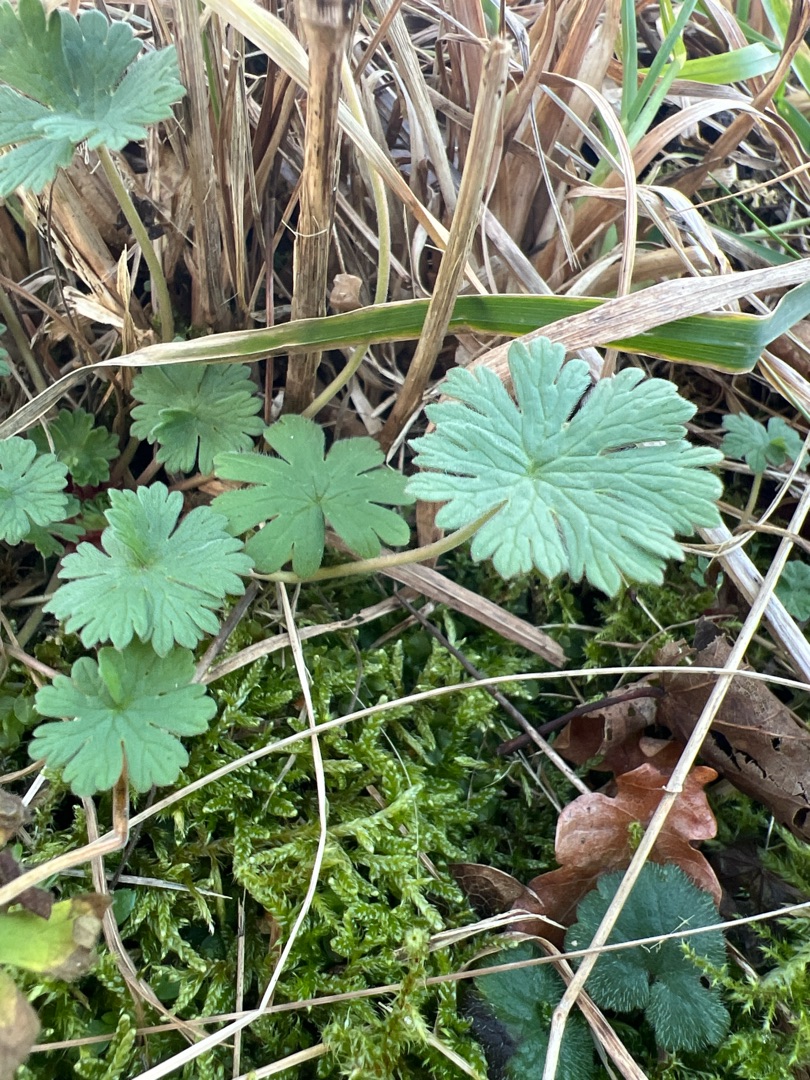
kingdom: Plantae
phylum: Tracheophyta
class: Magnoliopsida
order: Geraniales
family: Geraniaceae
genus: Geranium
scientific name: Geranium pusillum
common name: Liden storkenæb
